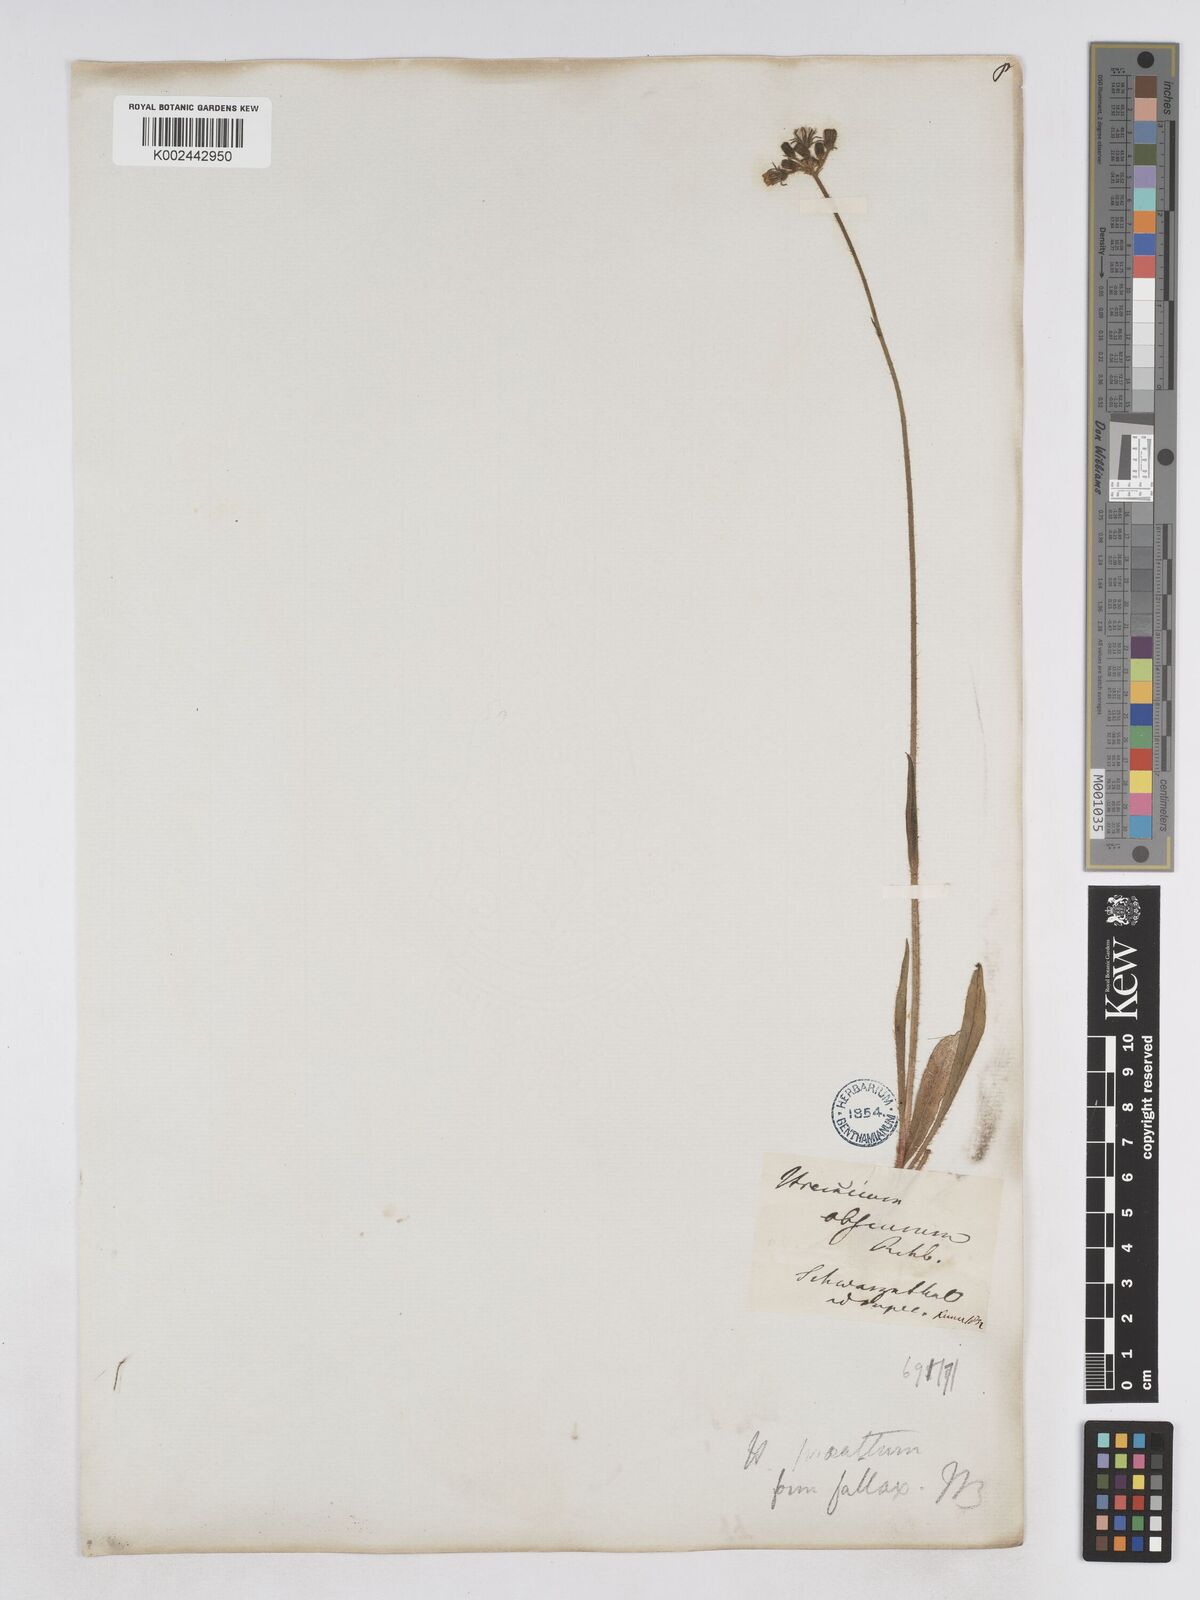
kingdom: Plantae
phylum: Tracheophyta
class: Magnoliopsida
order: Asterales
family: Asteraceae
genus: Pilosella
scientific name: Pilosella fallax
